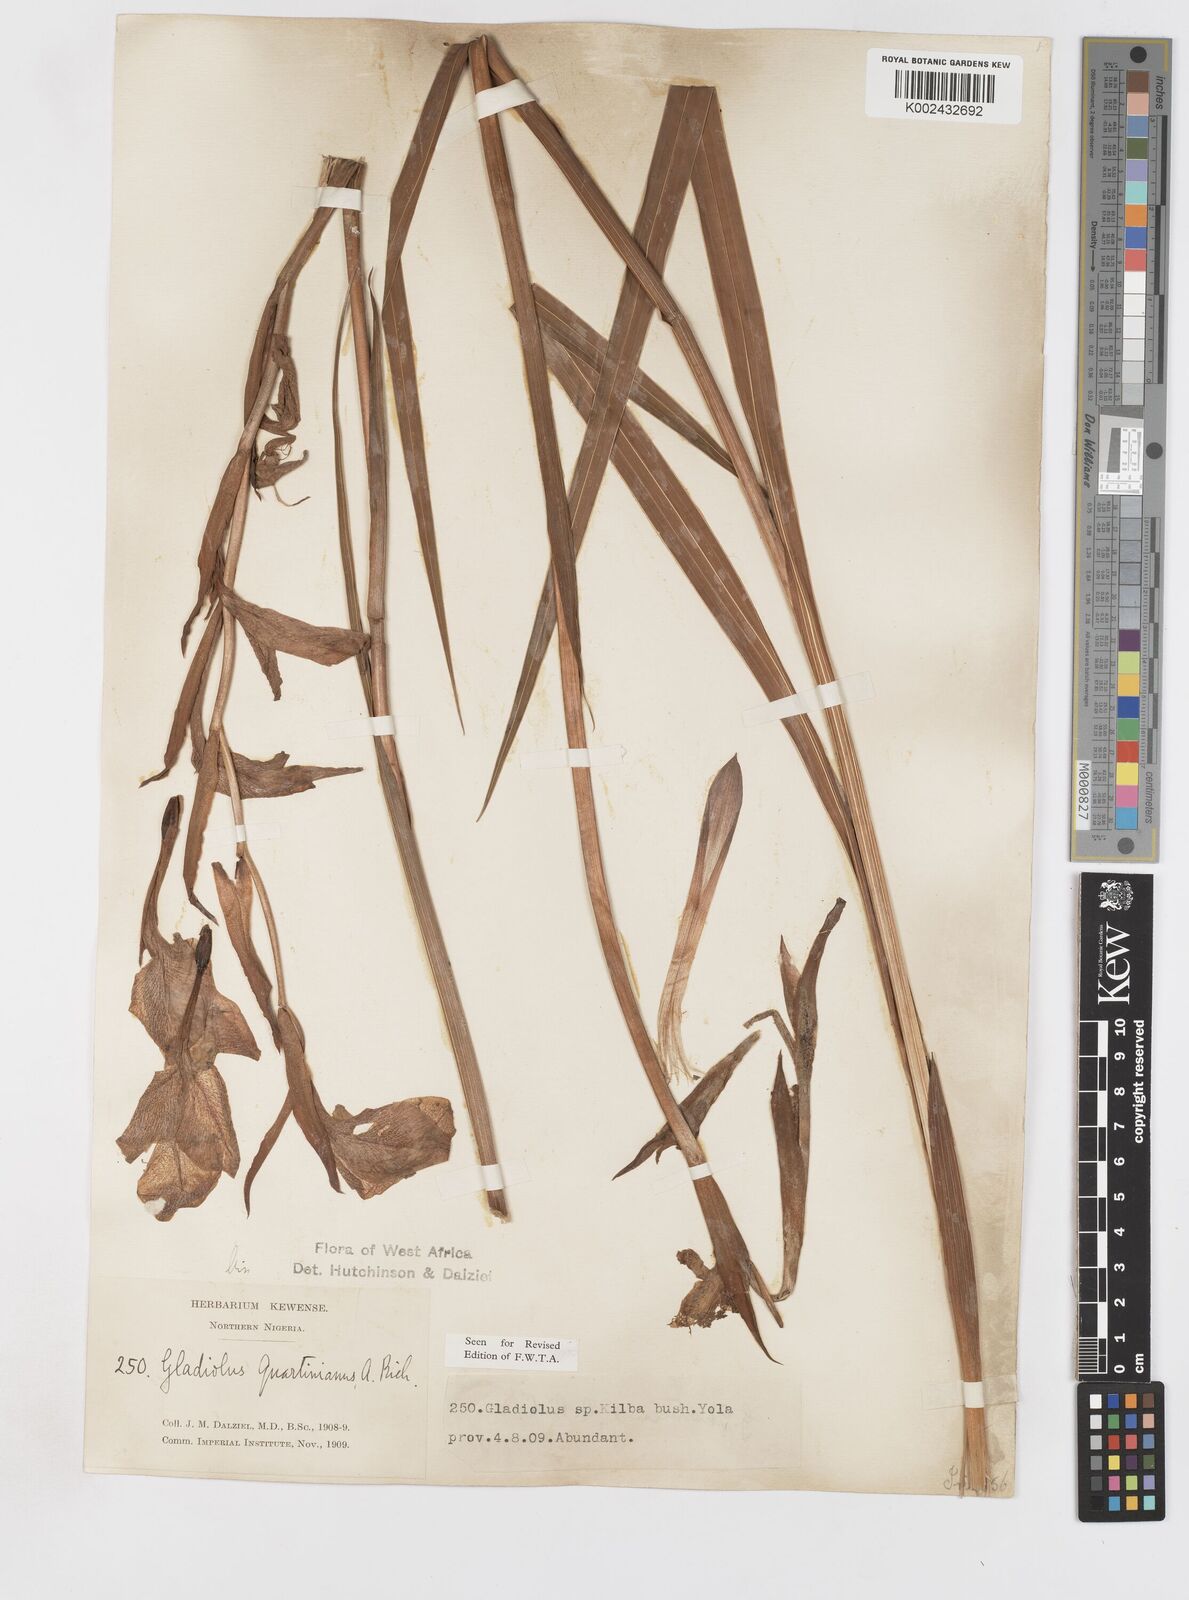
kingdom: Plantae
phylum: Tracheophyta
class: Liliopsida
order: Asparagales
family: Iridaceae
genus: Gladiolus
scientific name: Gladiolus dalenii
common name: Cornflag
